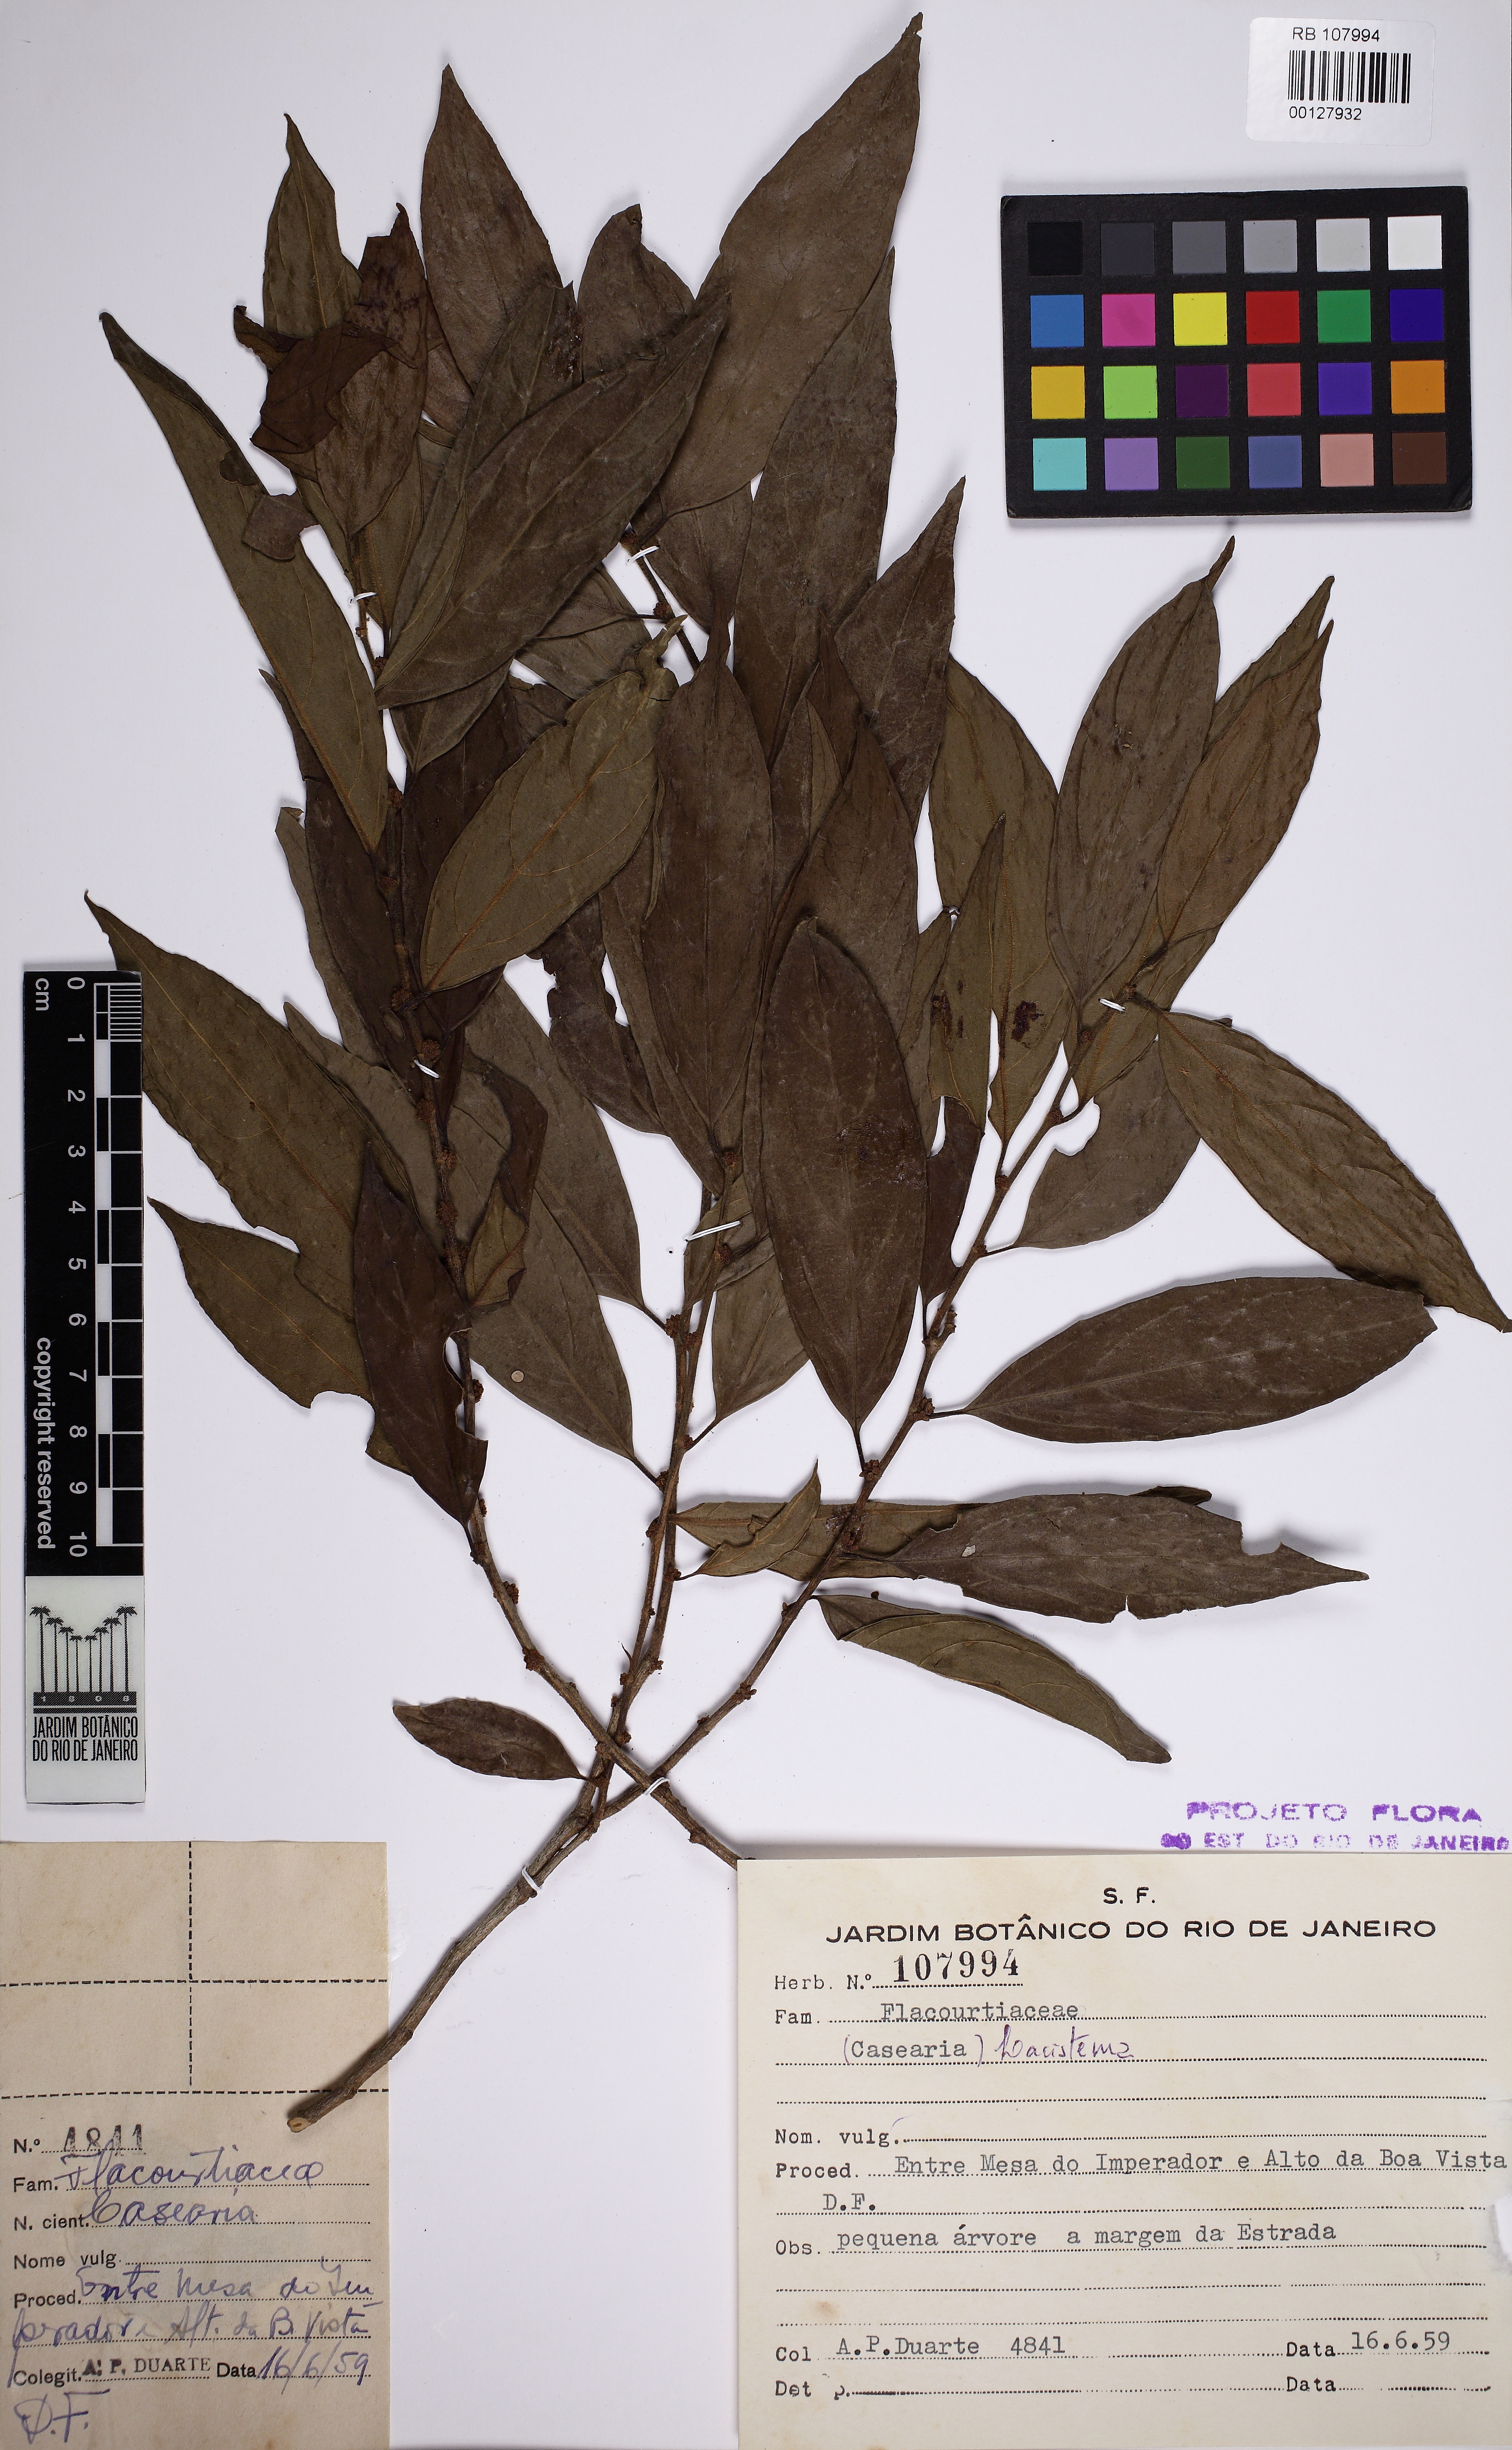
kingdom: Plantae
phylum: Tracheophyta
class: Magnoliopsida
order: Malpighiales
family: Lacistemataceae
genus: Lacistema
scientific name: Lacistema
